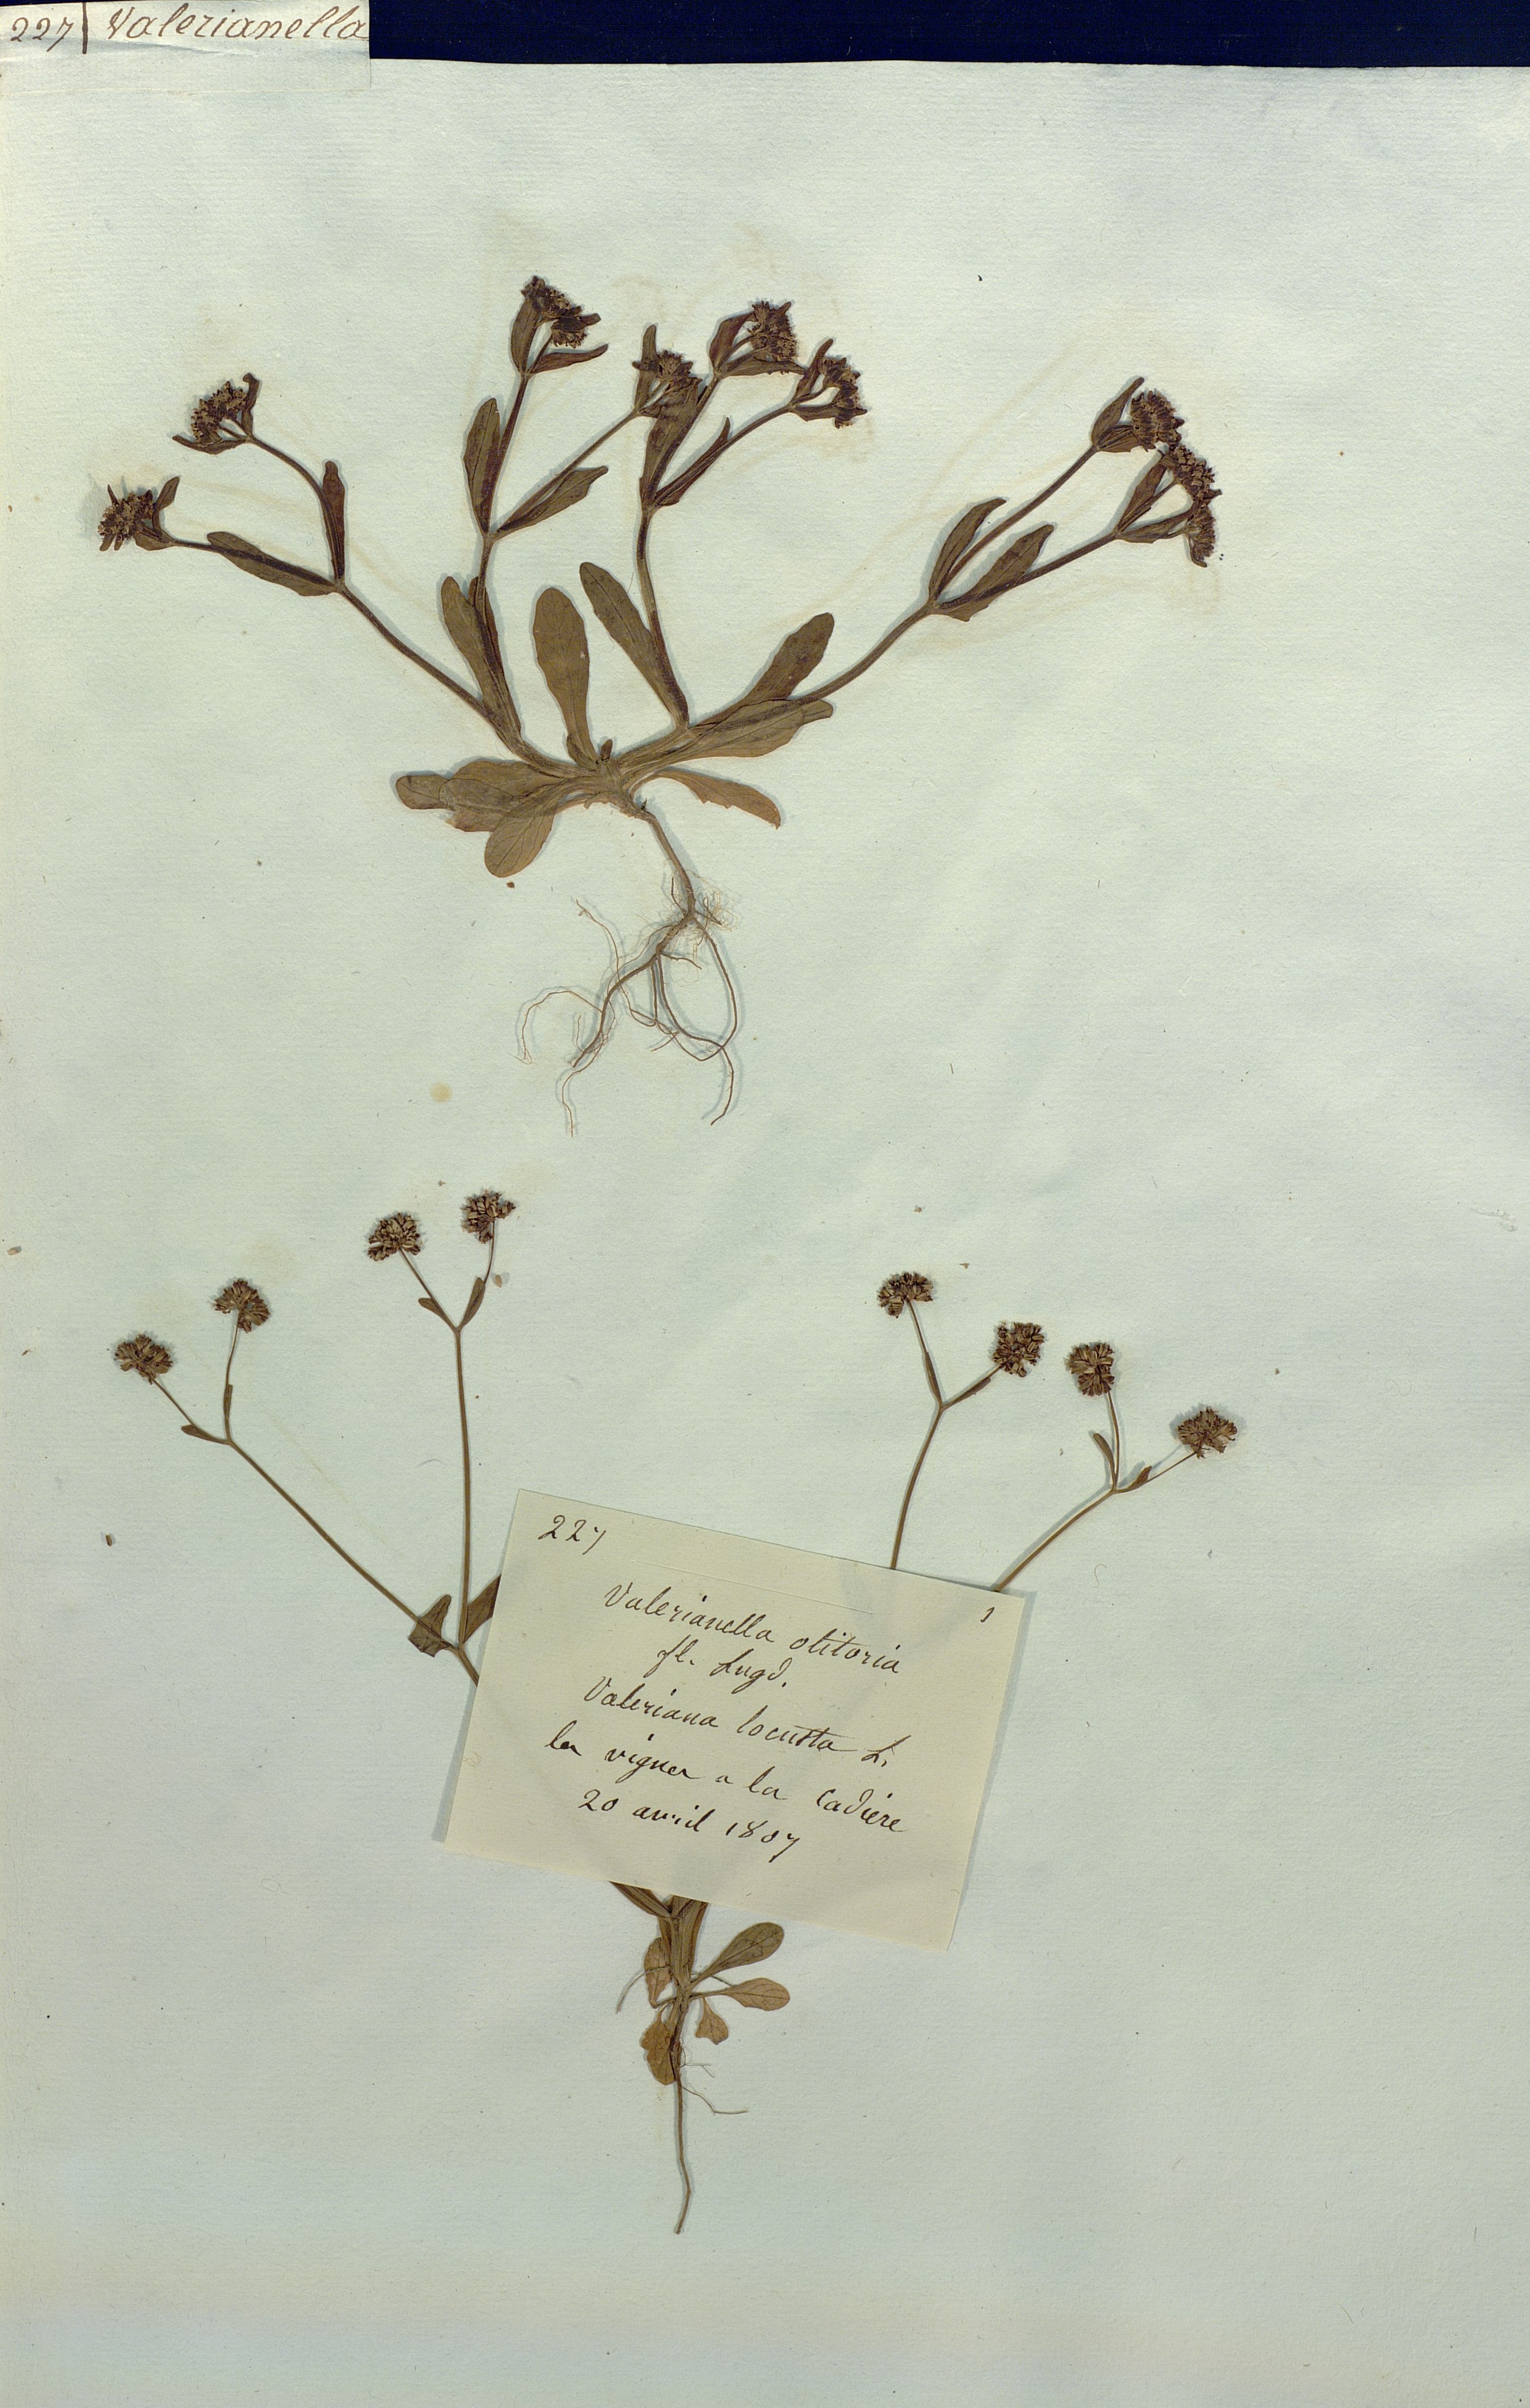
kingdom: Plantae
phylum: Tracheophyta
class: Magnoliopsida
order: Dipsacales
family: Caprifoliaceae
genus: Valerianella
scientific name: Valerianella locusta
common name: Common cornsalad
